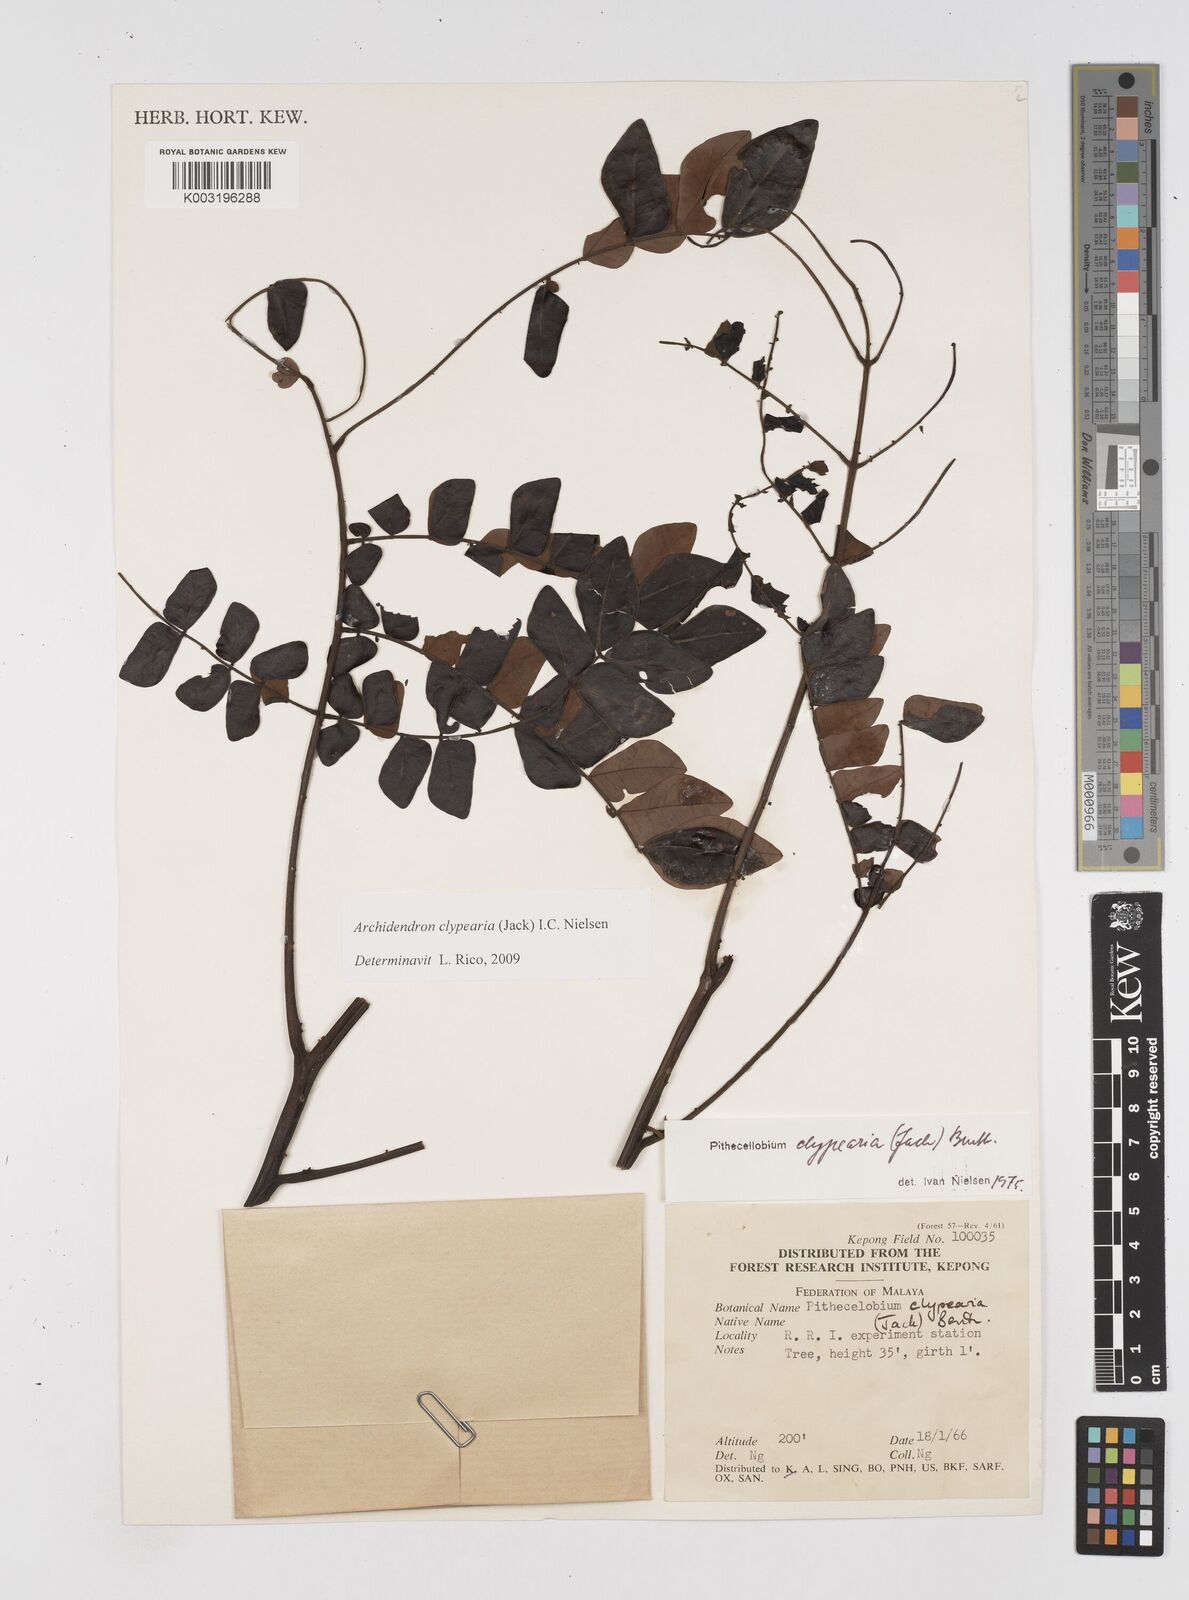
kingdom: Plantae
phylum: Tracheophyta
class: Magnoliopsida
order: Fabales
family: Fabaceae
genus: Archidendron
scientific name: Archidendron clypearia
